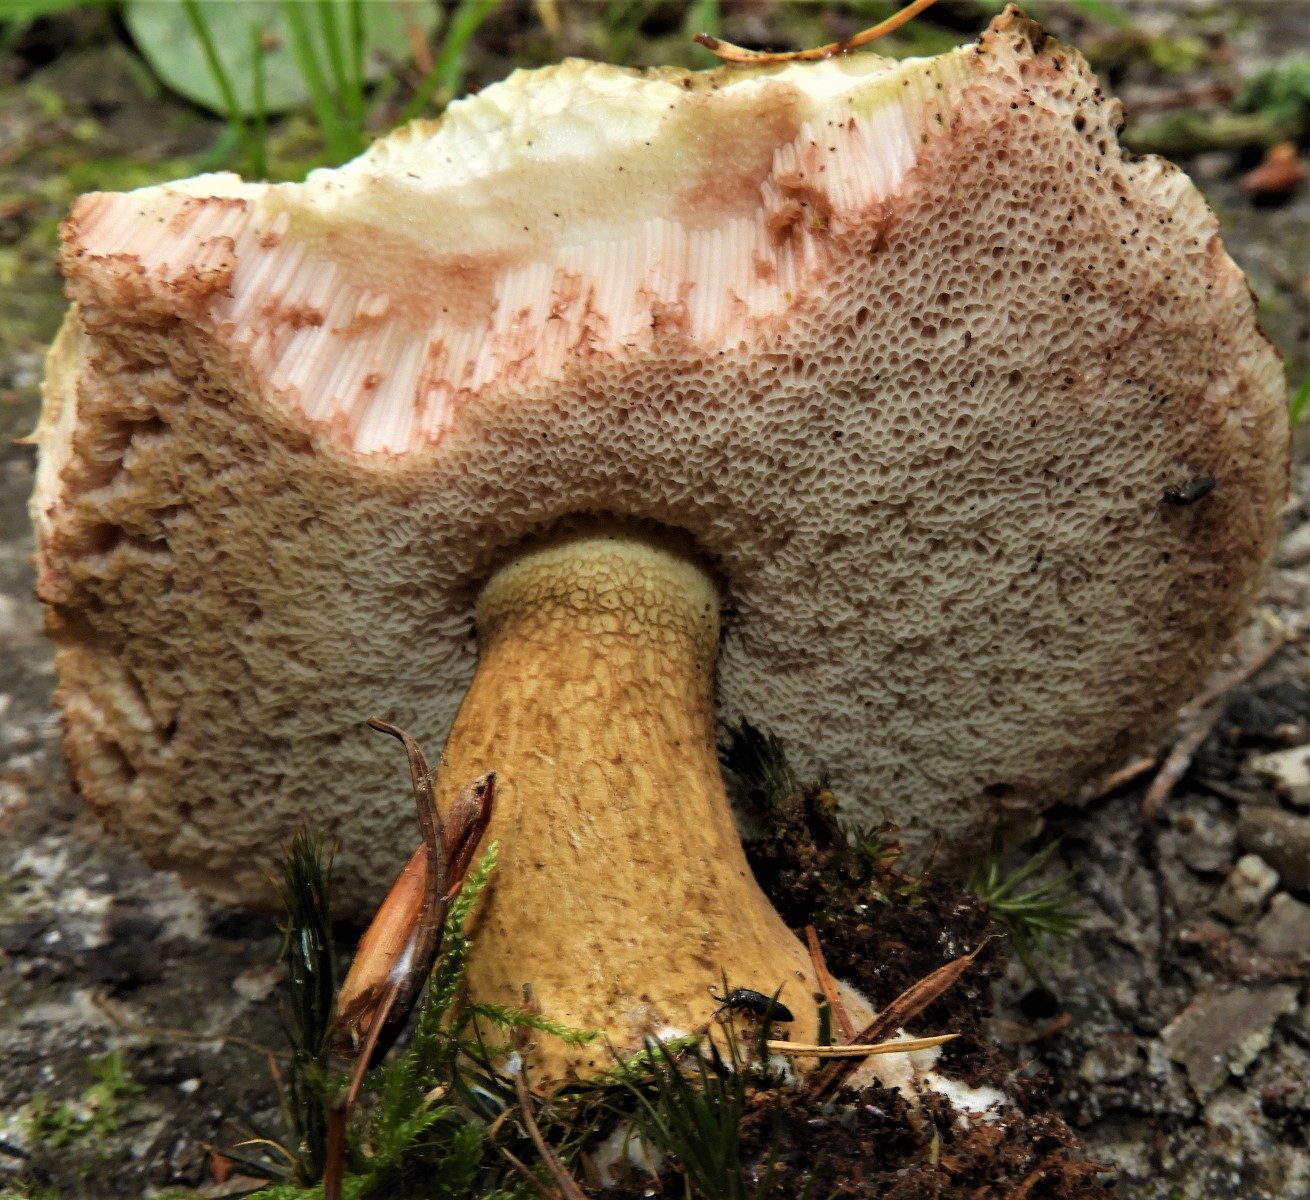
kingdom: Fungi
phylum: Basidiomycota
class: Agaricomycetes
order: Boletales
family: Boletaceae
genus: Tylopilus
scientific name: Tylopilus felleus
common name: galderørhat
